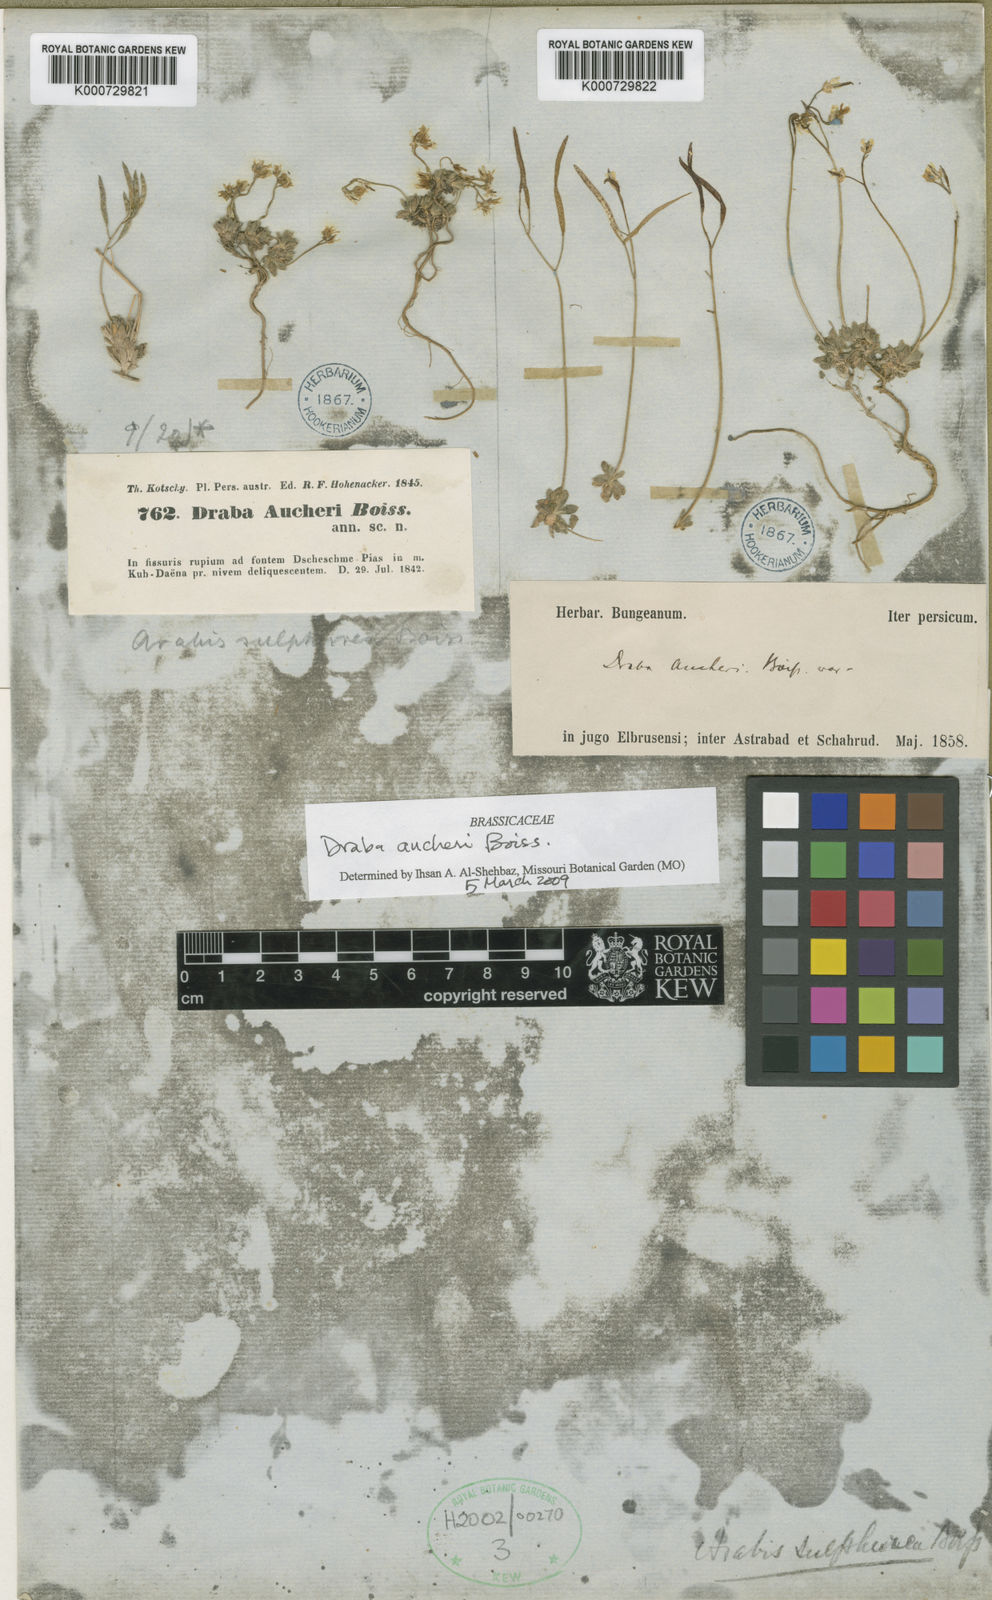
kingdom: Plantae
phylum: Tracheophyta
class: Magnoliopsida
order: Brassicales
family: Brassicaceae
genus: Draba
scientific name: Draba aucheri
